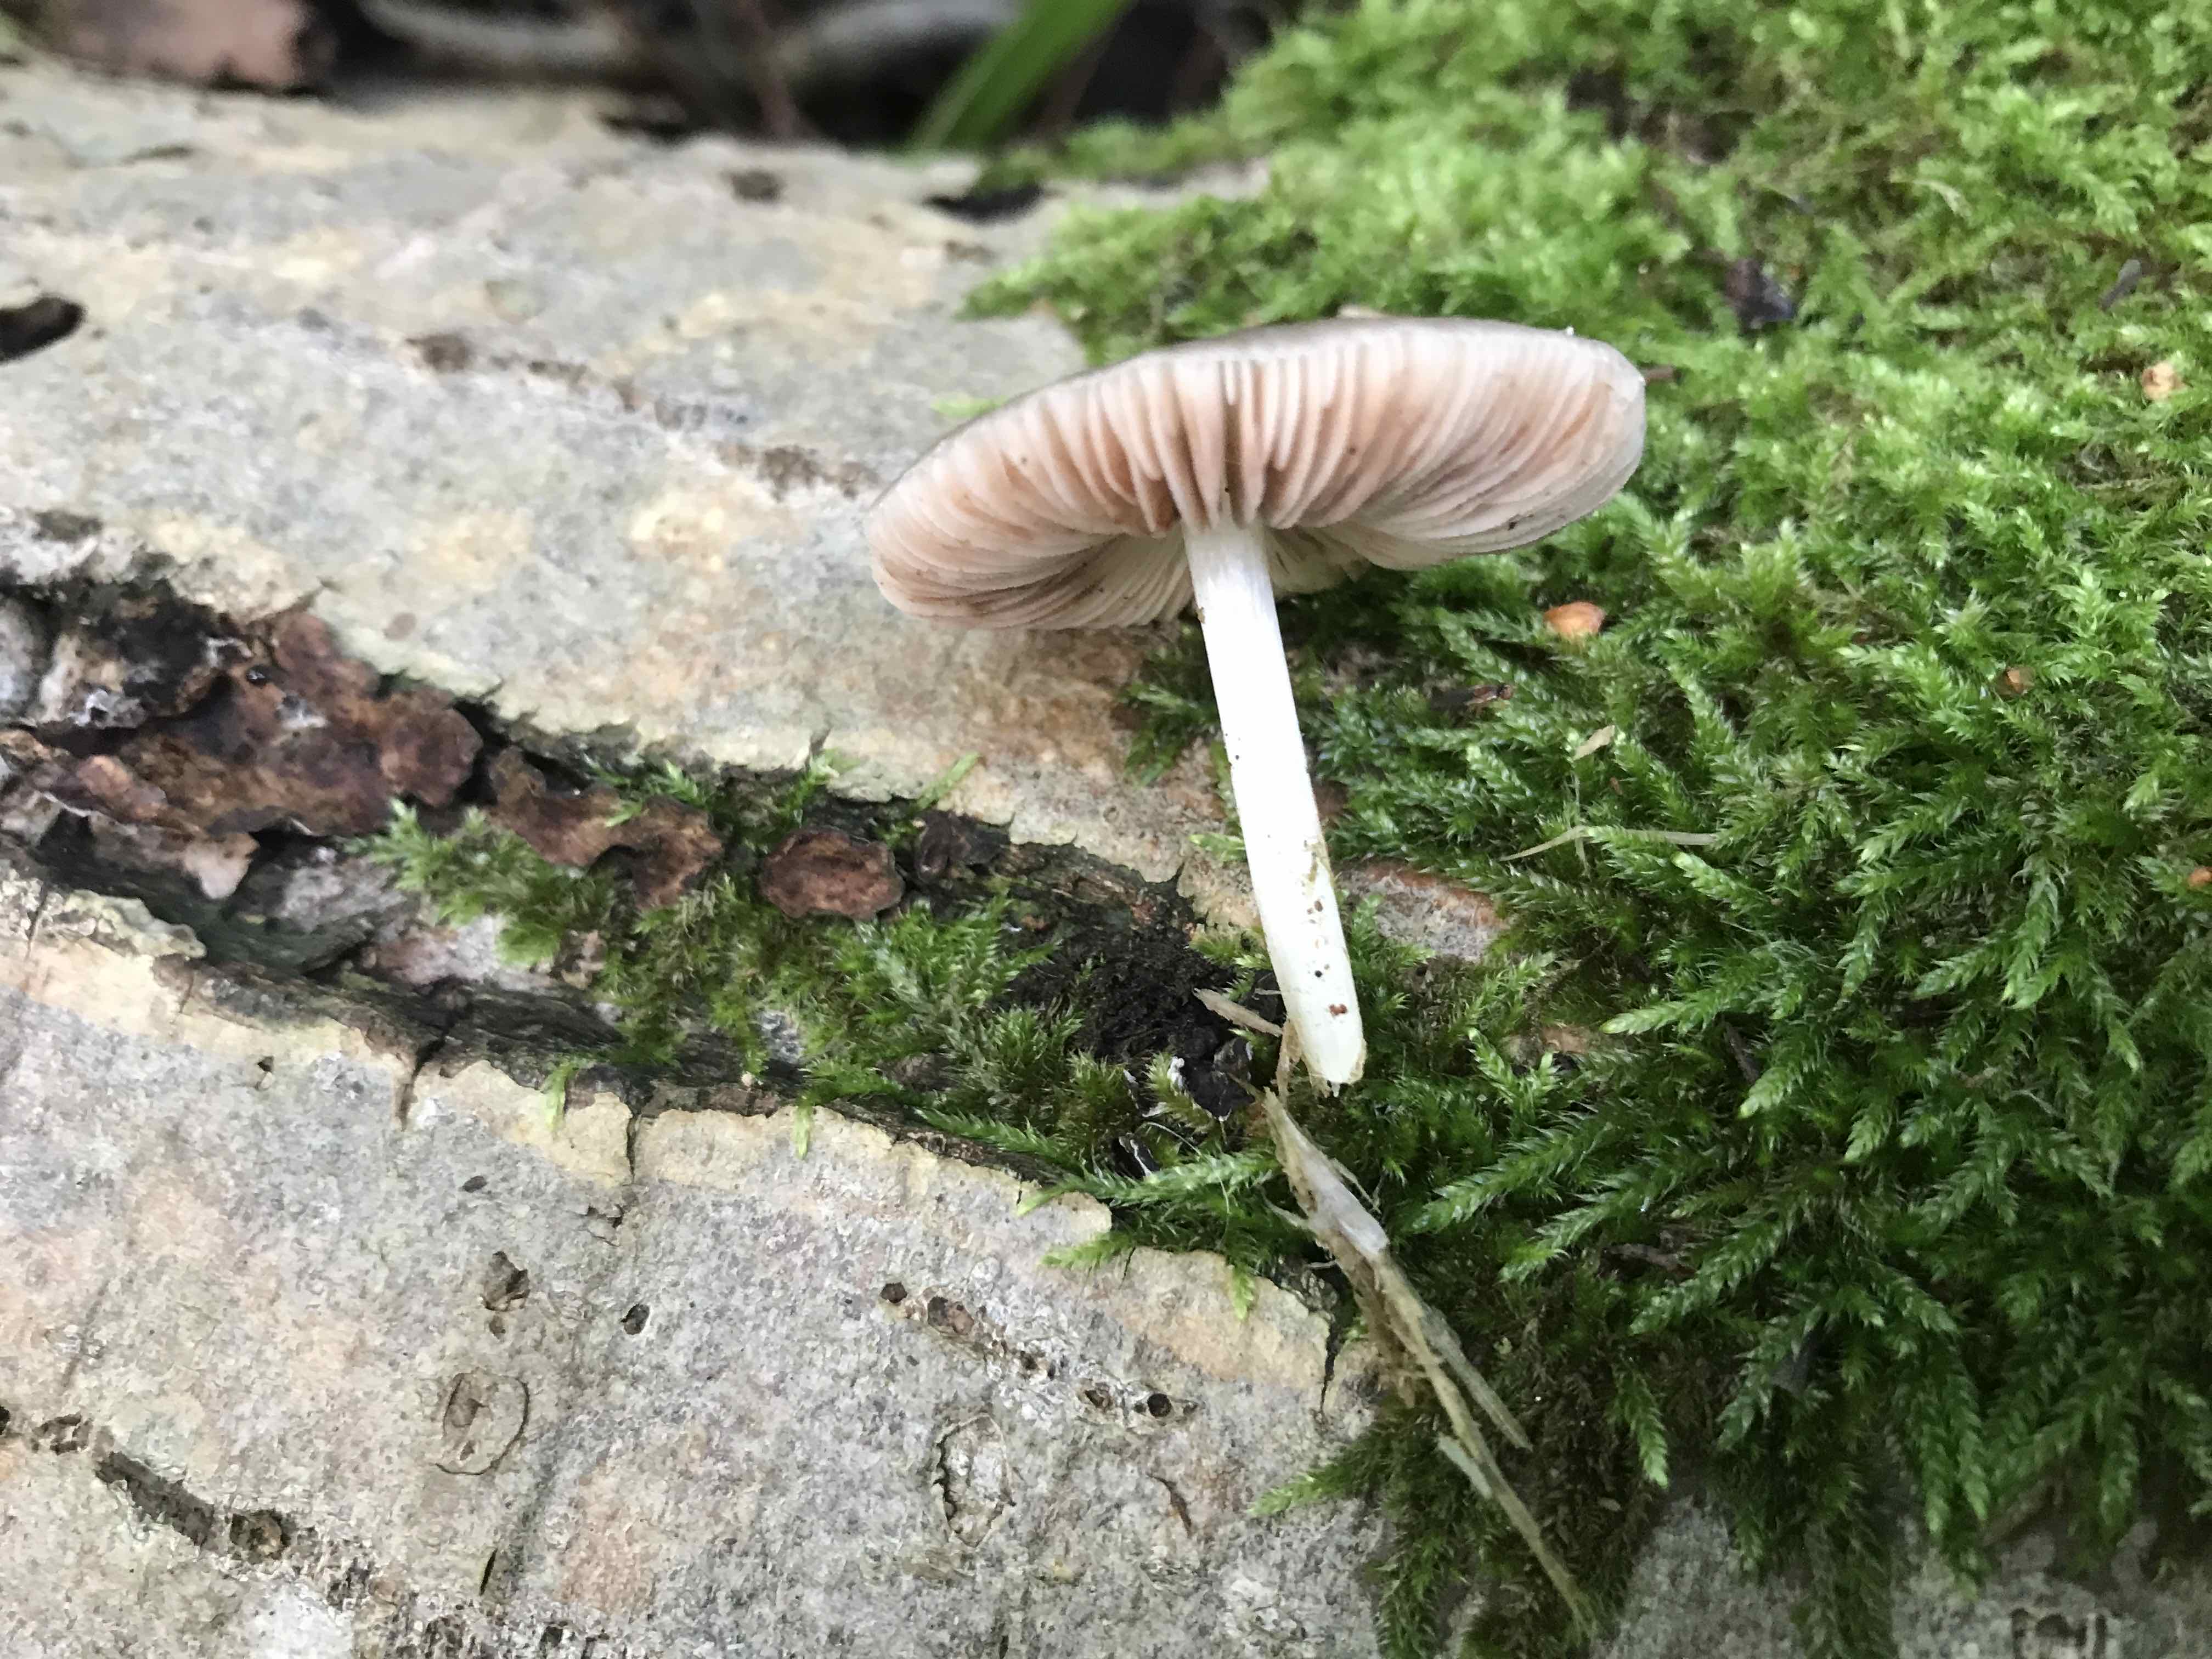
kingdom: Fungi
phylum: Basidiomycota
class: Agaricomycetes
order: Agaricales
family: Pluteaceae
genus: Pluteus
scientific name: Pluteus salicinus
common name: stiv skærmhat
